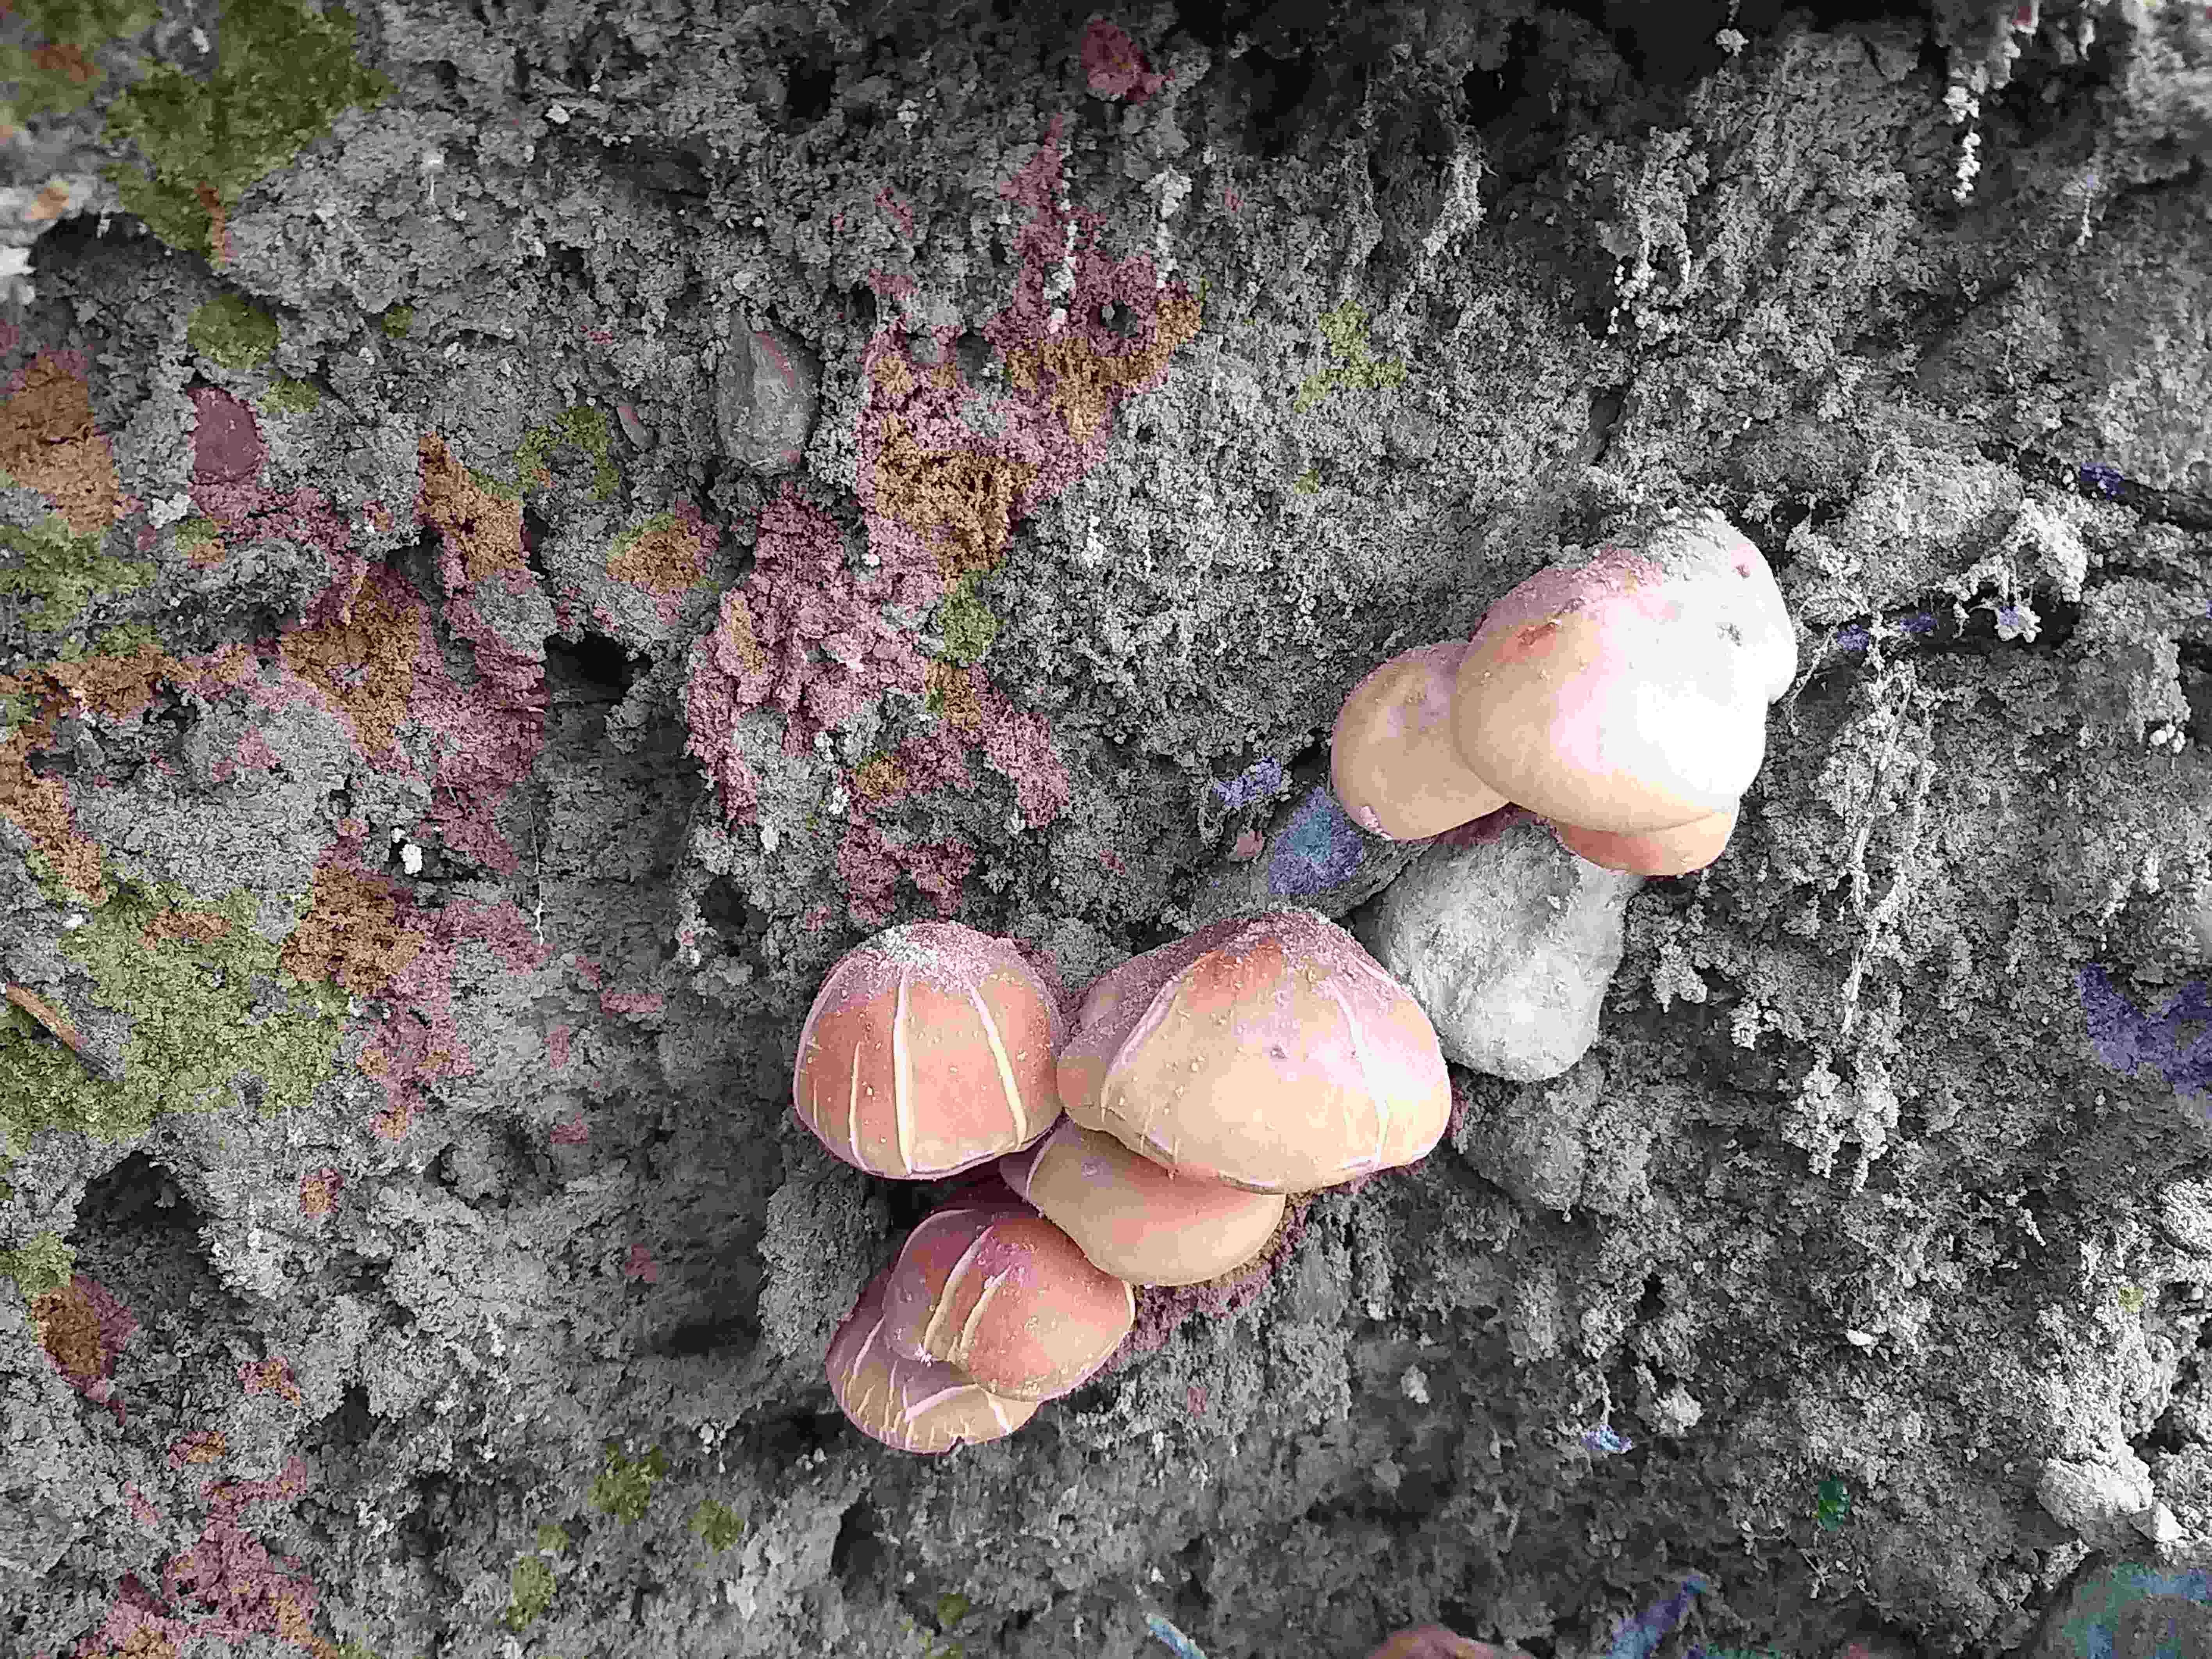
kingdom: Fungi
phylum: Basidiomycota
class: Agaricomycetes
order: Agaricales
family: Strophariaceae
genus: Hypholoma
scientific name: Hypholoma
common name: svovlhat
